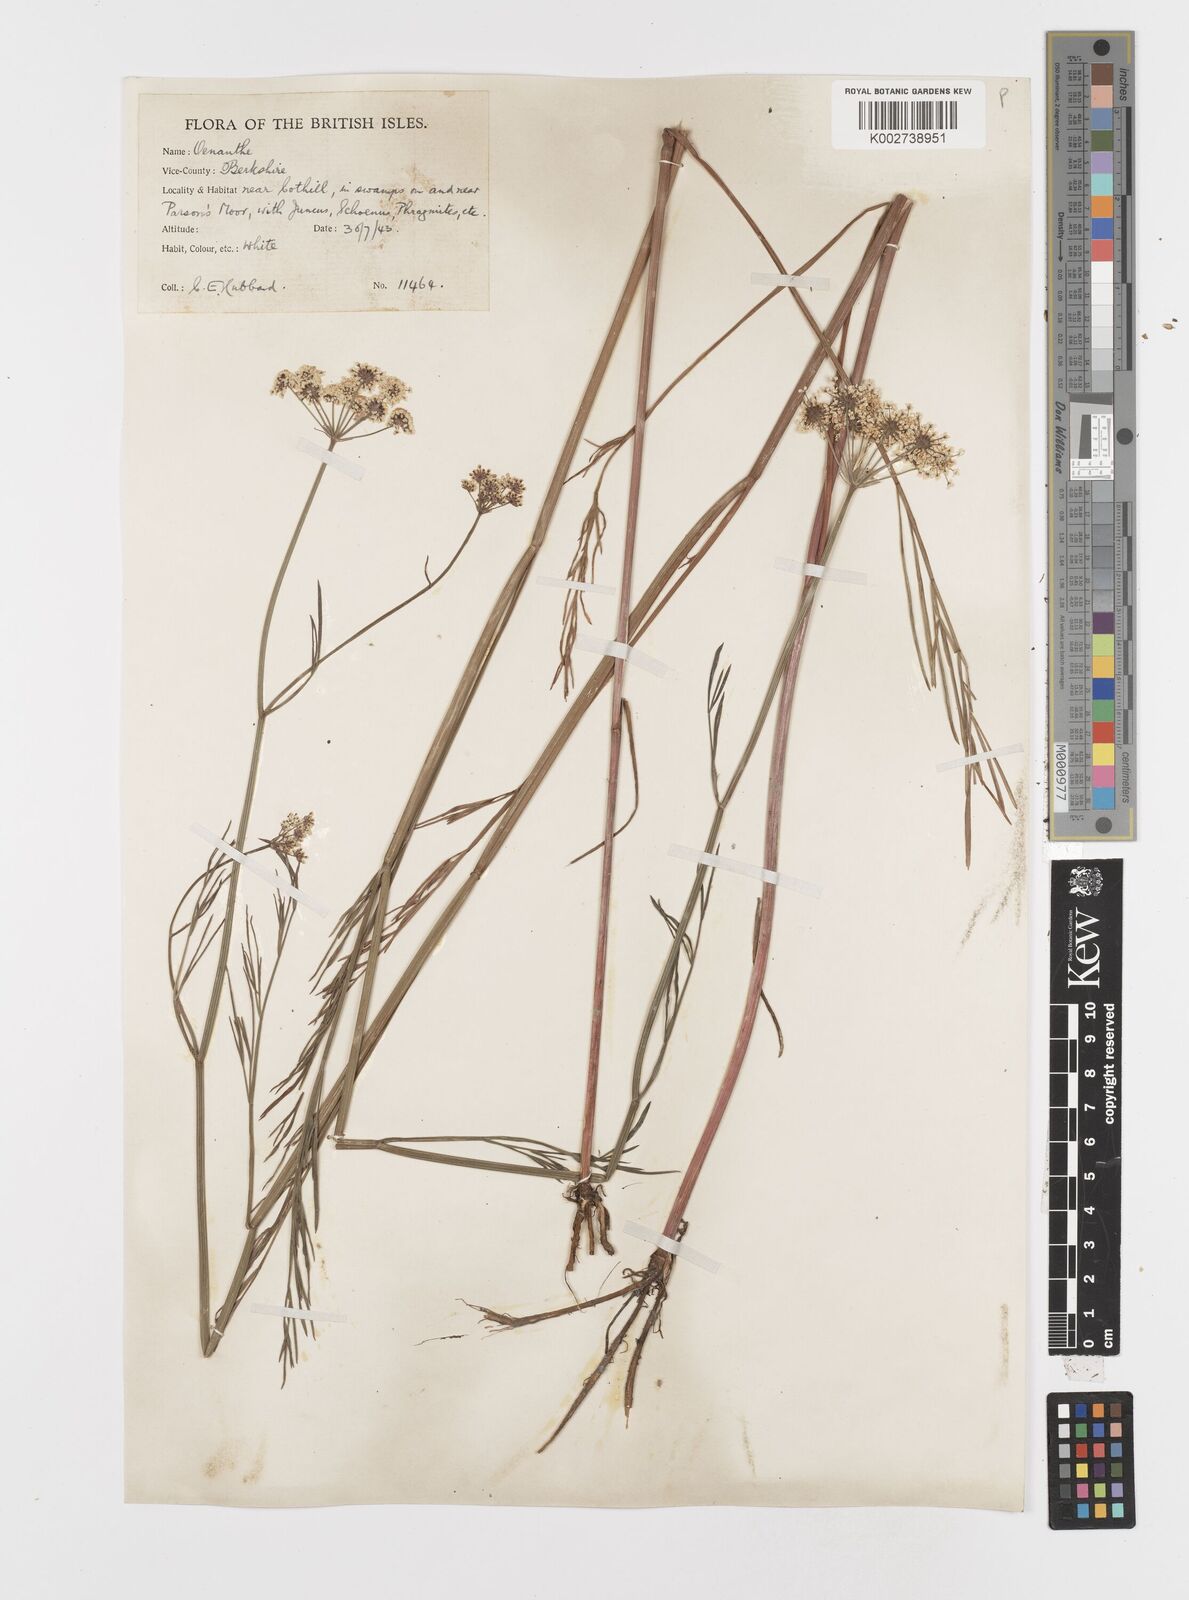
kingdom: Plantae
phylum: Tracheophyta
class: Magnoliopsida
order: Apiales
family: Apiaceae
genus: Oenanthe
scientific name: Oenanthe lachenalii
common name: Parsley water-dropwort
